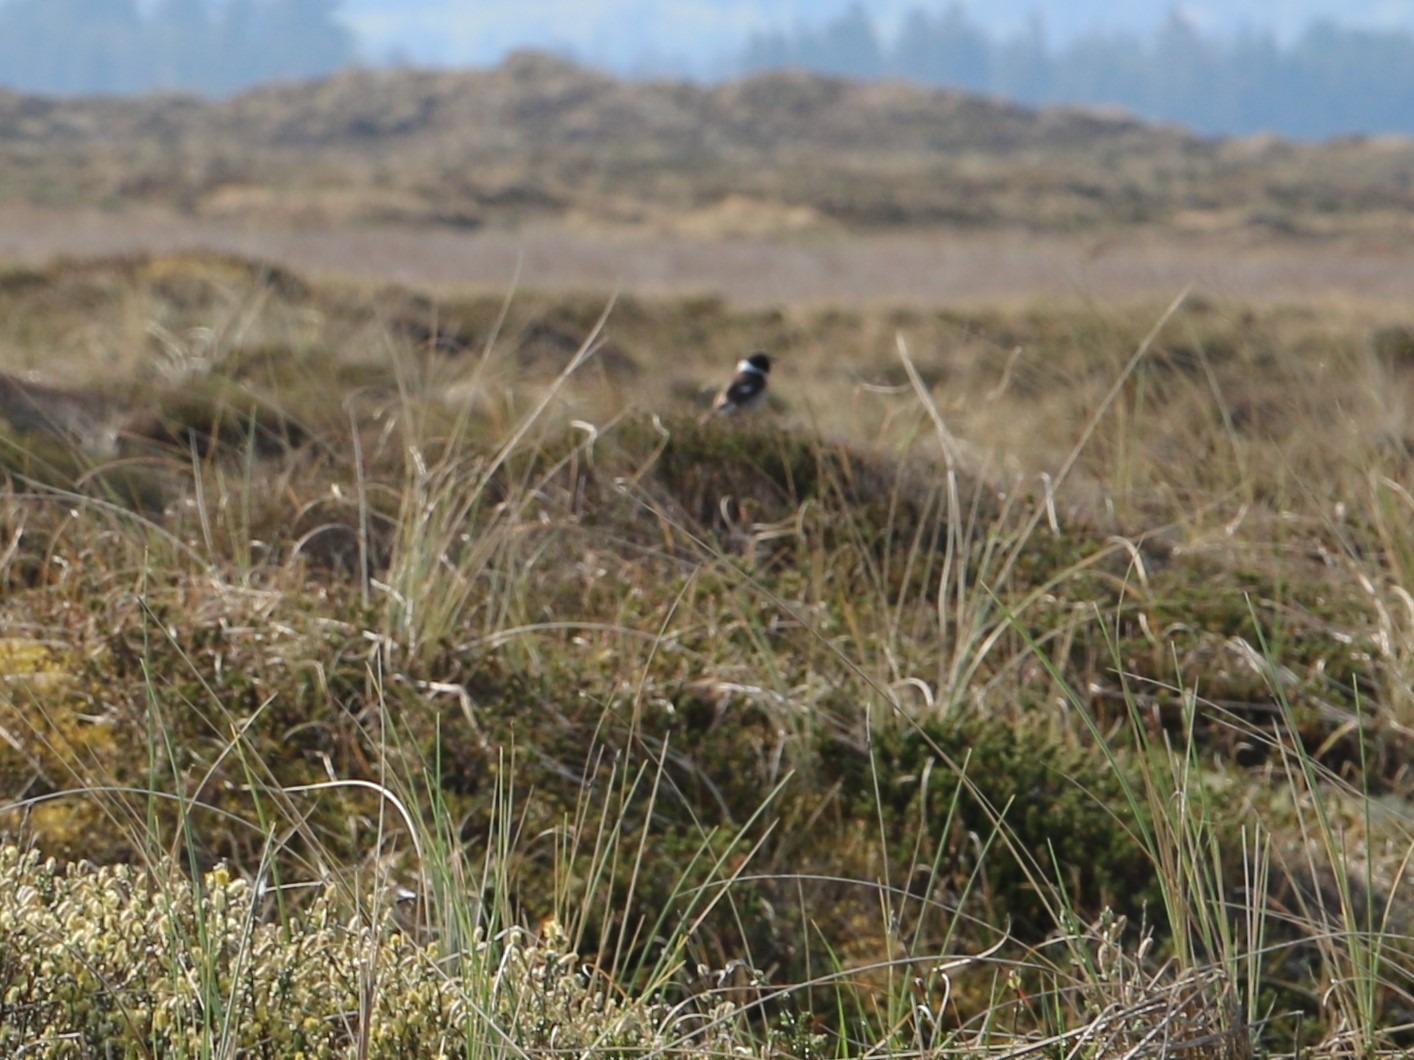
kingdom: Animalia
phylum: Chordata
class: Aves
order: Passeriformes
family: Muscicapidae
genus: Saxicola
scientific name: Saxicola rubicola
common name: Sortstrubet bynkefugl
